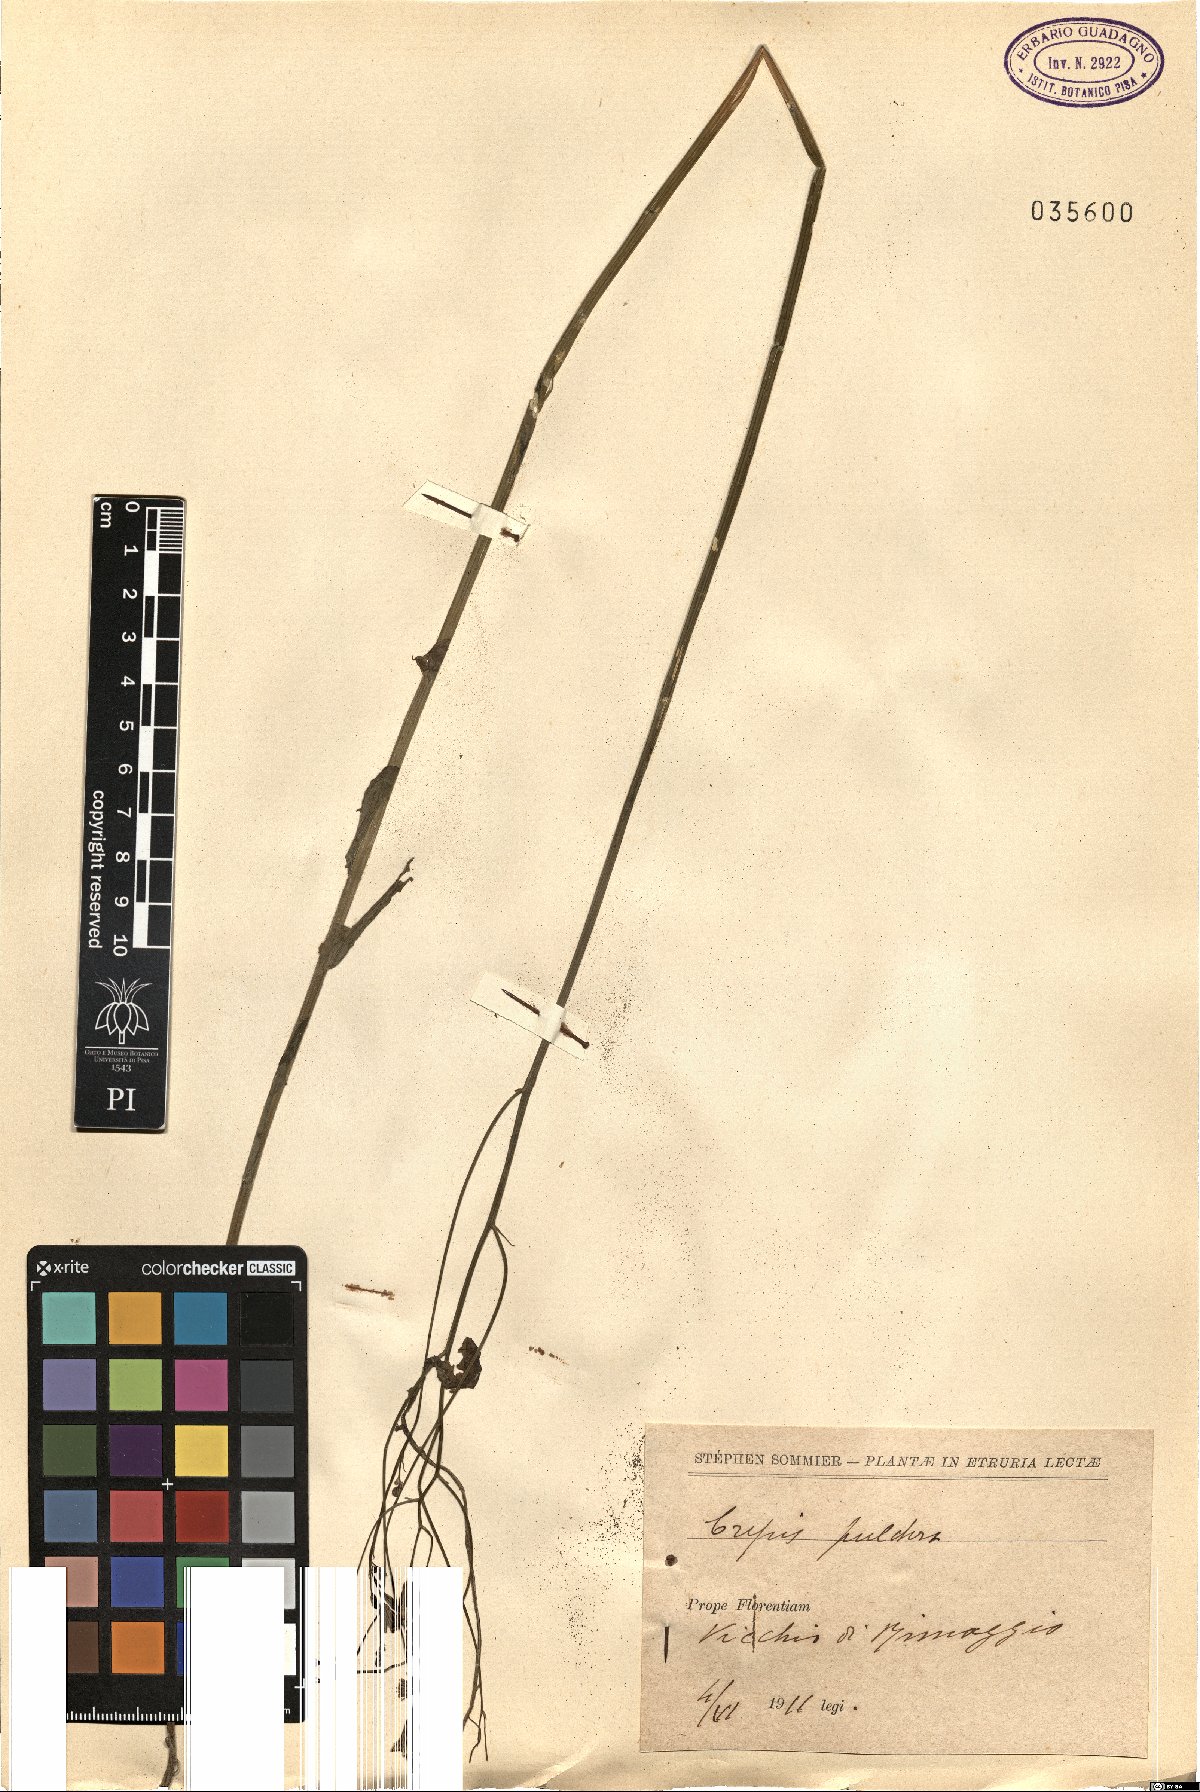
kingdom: Plantae
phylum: Tracheophyta
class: Magnoliopsida
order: Asterales
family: Asteraceae
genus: Crepis
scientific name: Crepis pulchra
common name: Hawk's-beard
